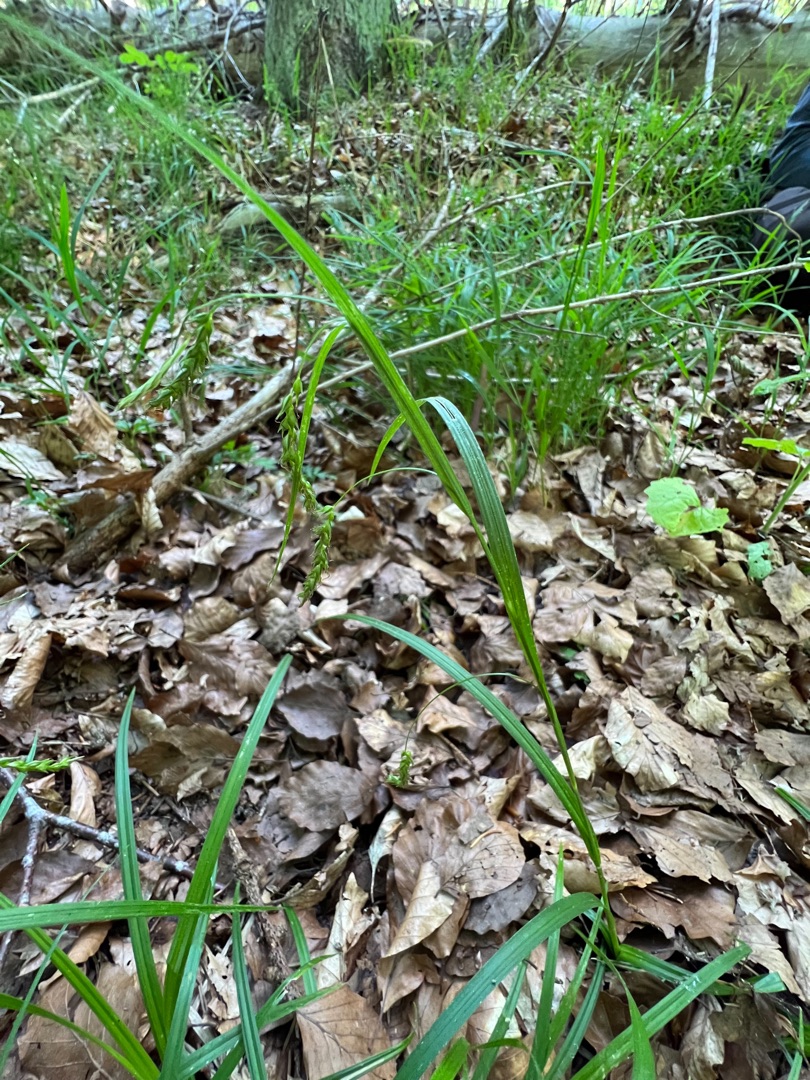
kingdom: Plantae
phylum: Tracheophyta
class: Liliopsida
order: Poales
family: Cyperaceae
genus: Carex
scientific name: Carex sylvatica
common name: Skov-star
